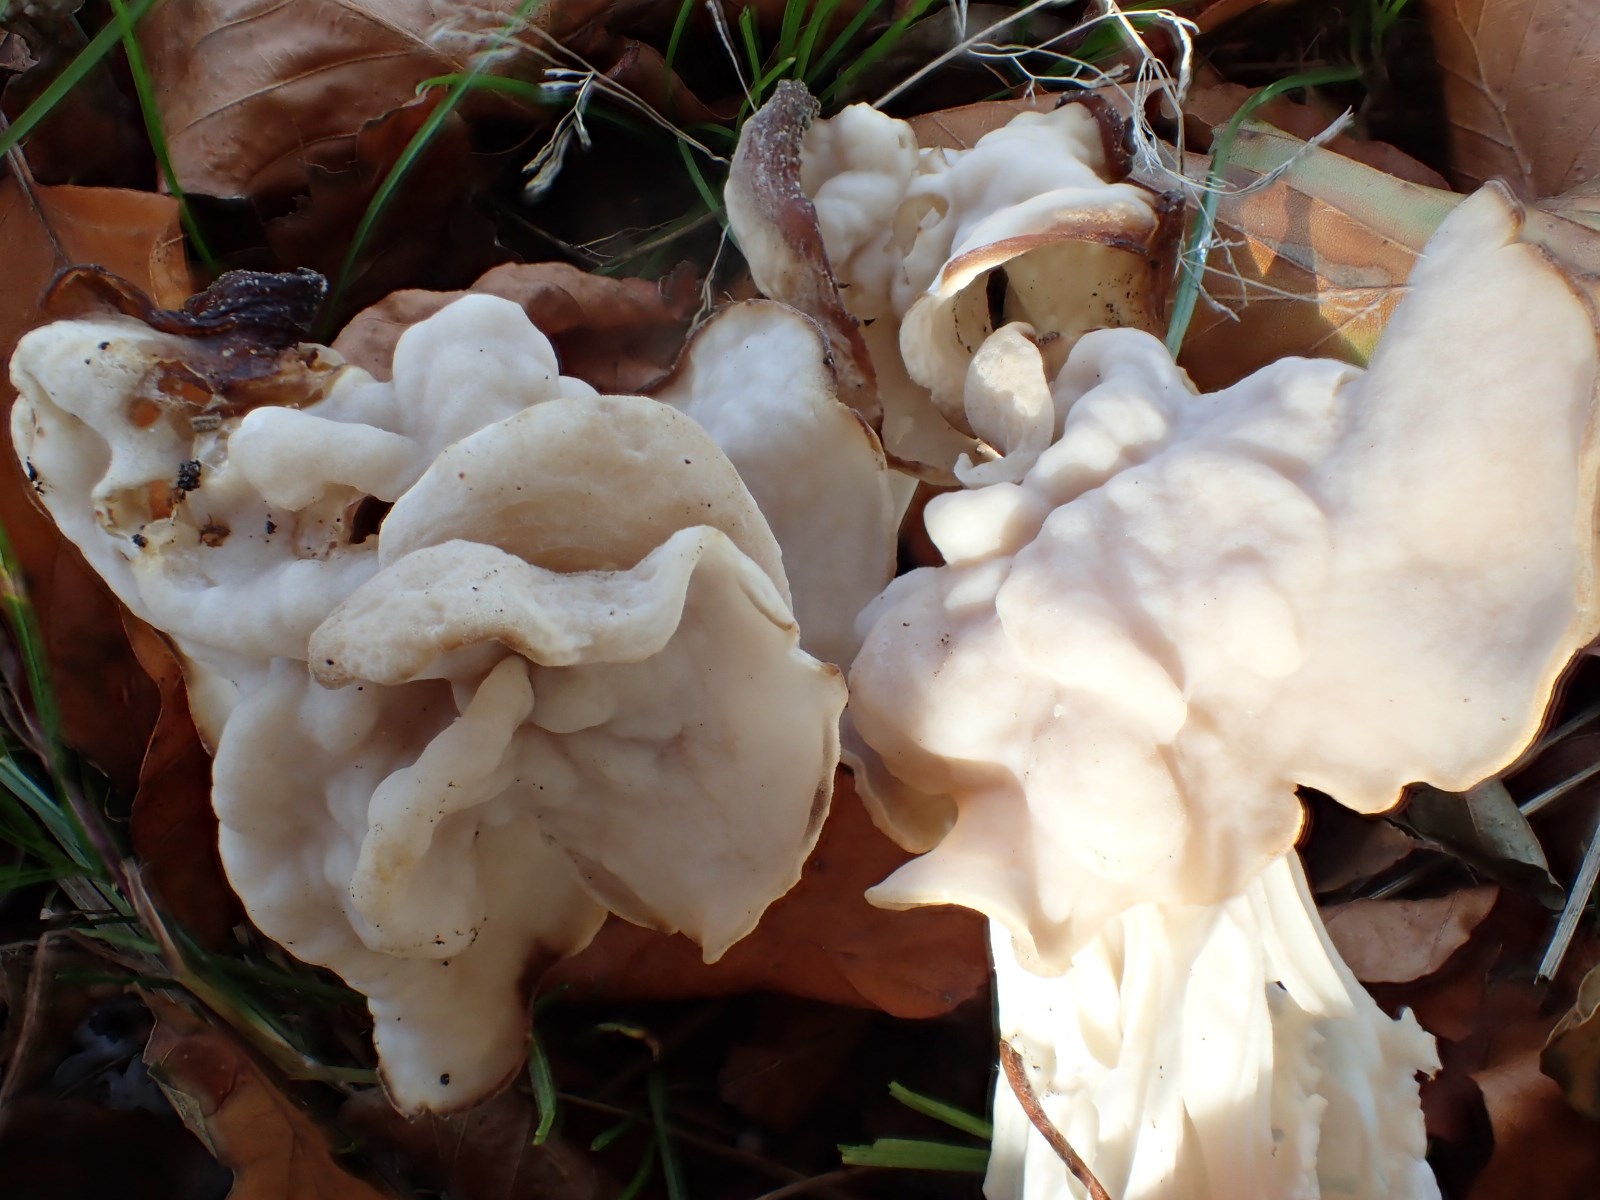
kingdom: Fungi
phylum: Ascomycota
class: Pezizomycetes
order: Pezizales
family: Helvellaceae
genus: Helvella
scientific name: Helvella lacunosa
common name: grubet foldhat
